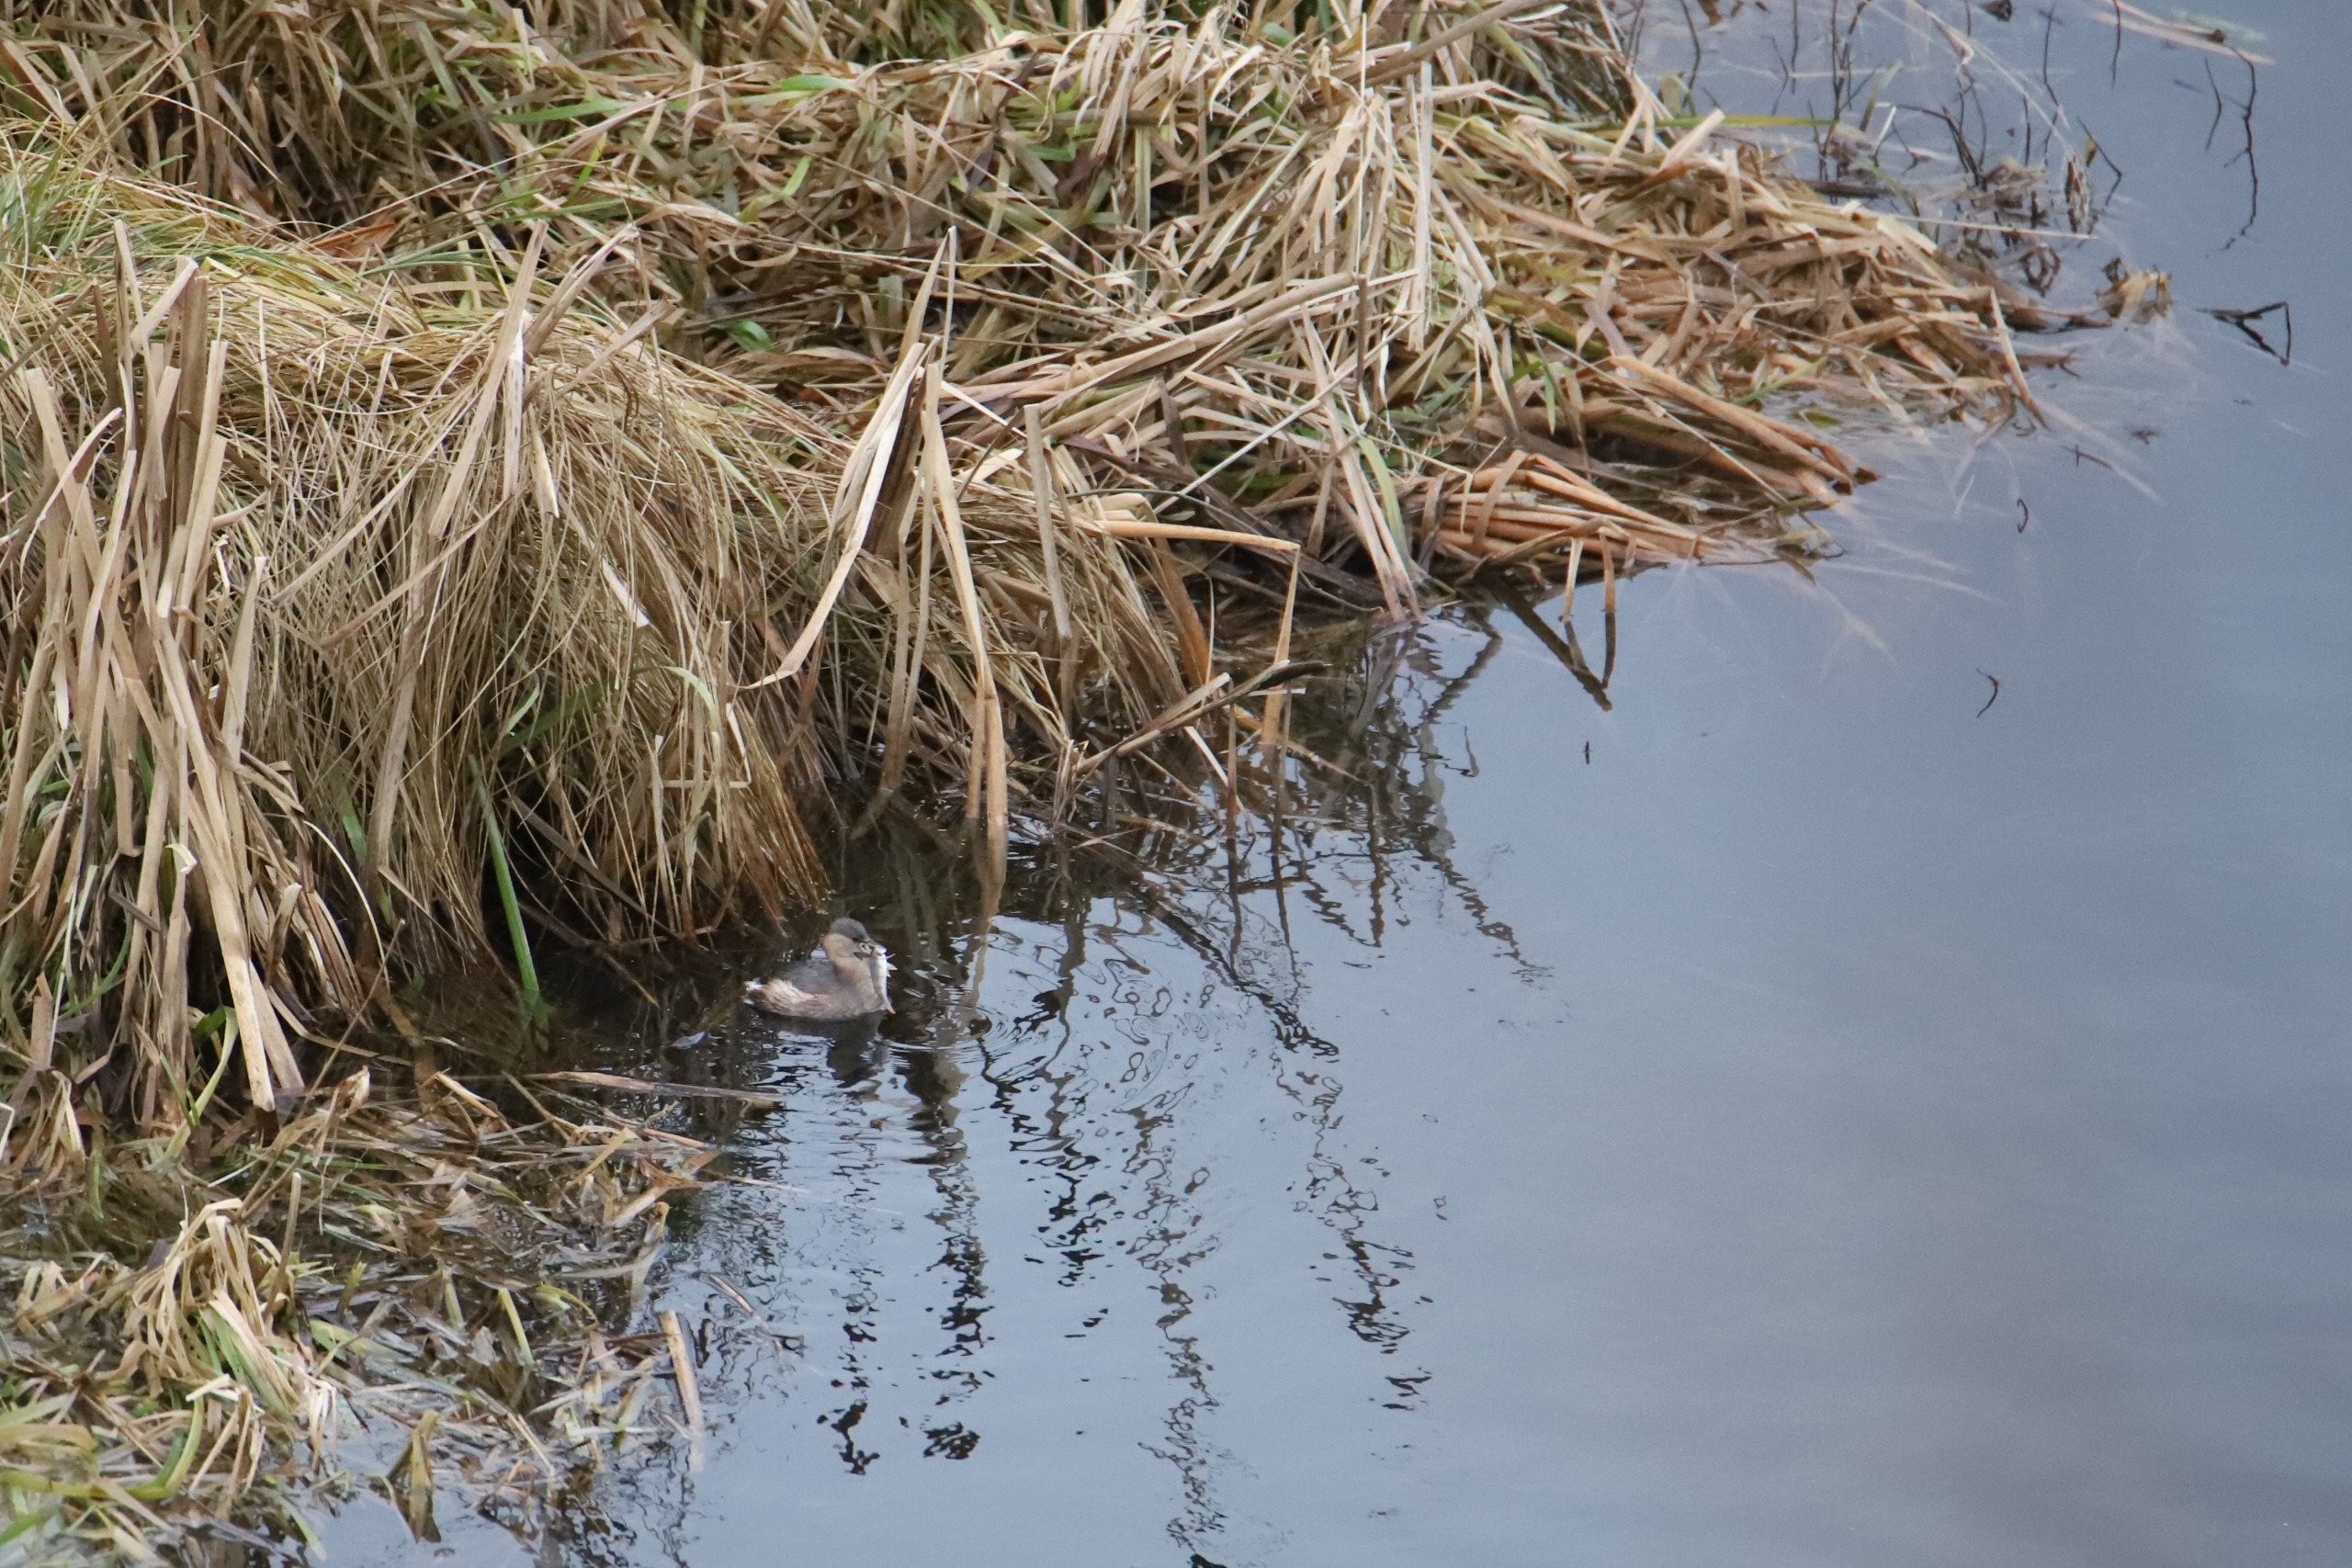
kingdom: Animalia
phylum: Chordata
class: Aves
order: Podicipediformes
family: Podicipedidae
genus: Tachybaptus
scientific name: Tachybaptus ruficollis
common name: Lille lappedykker
